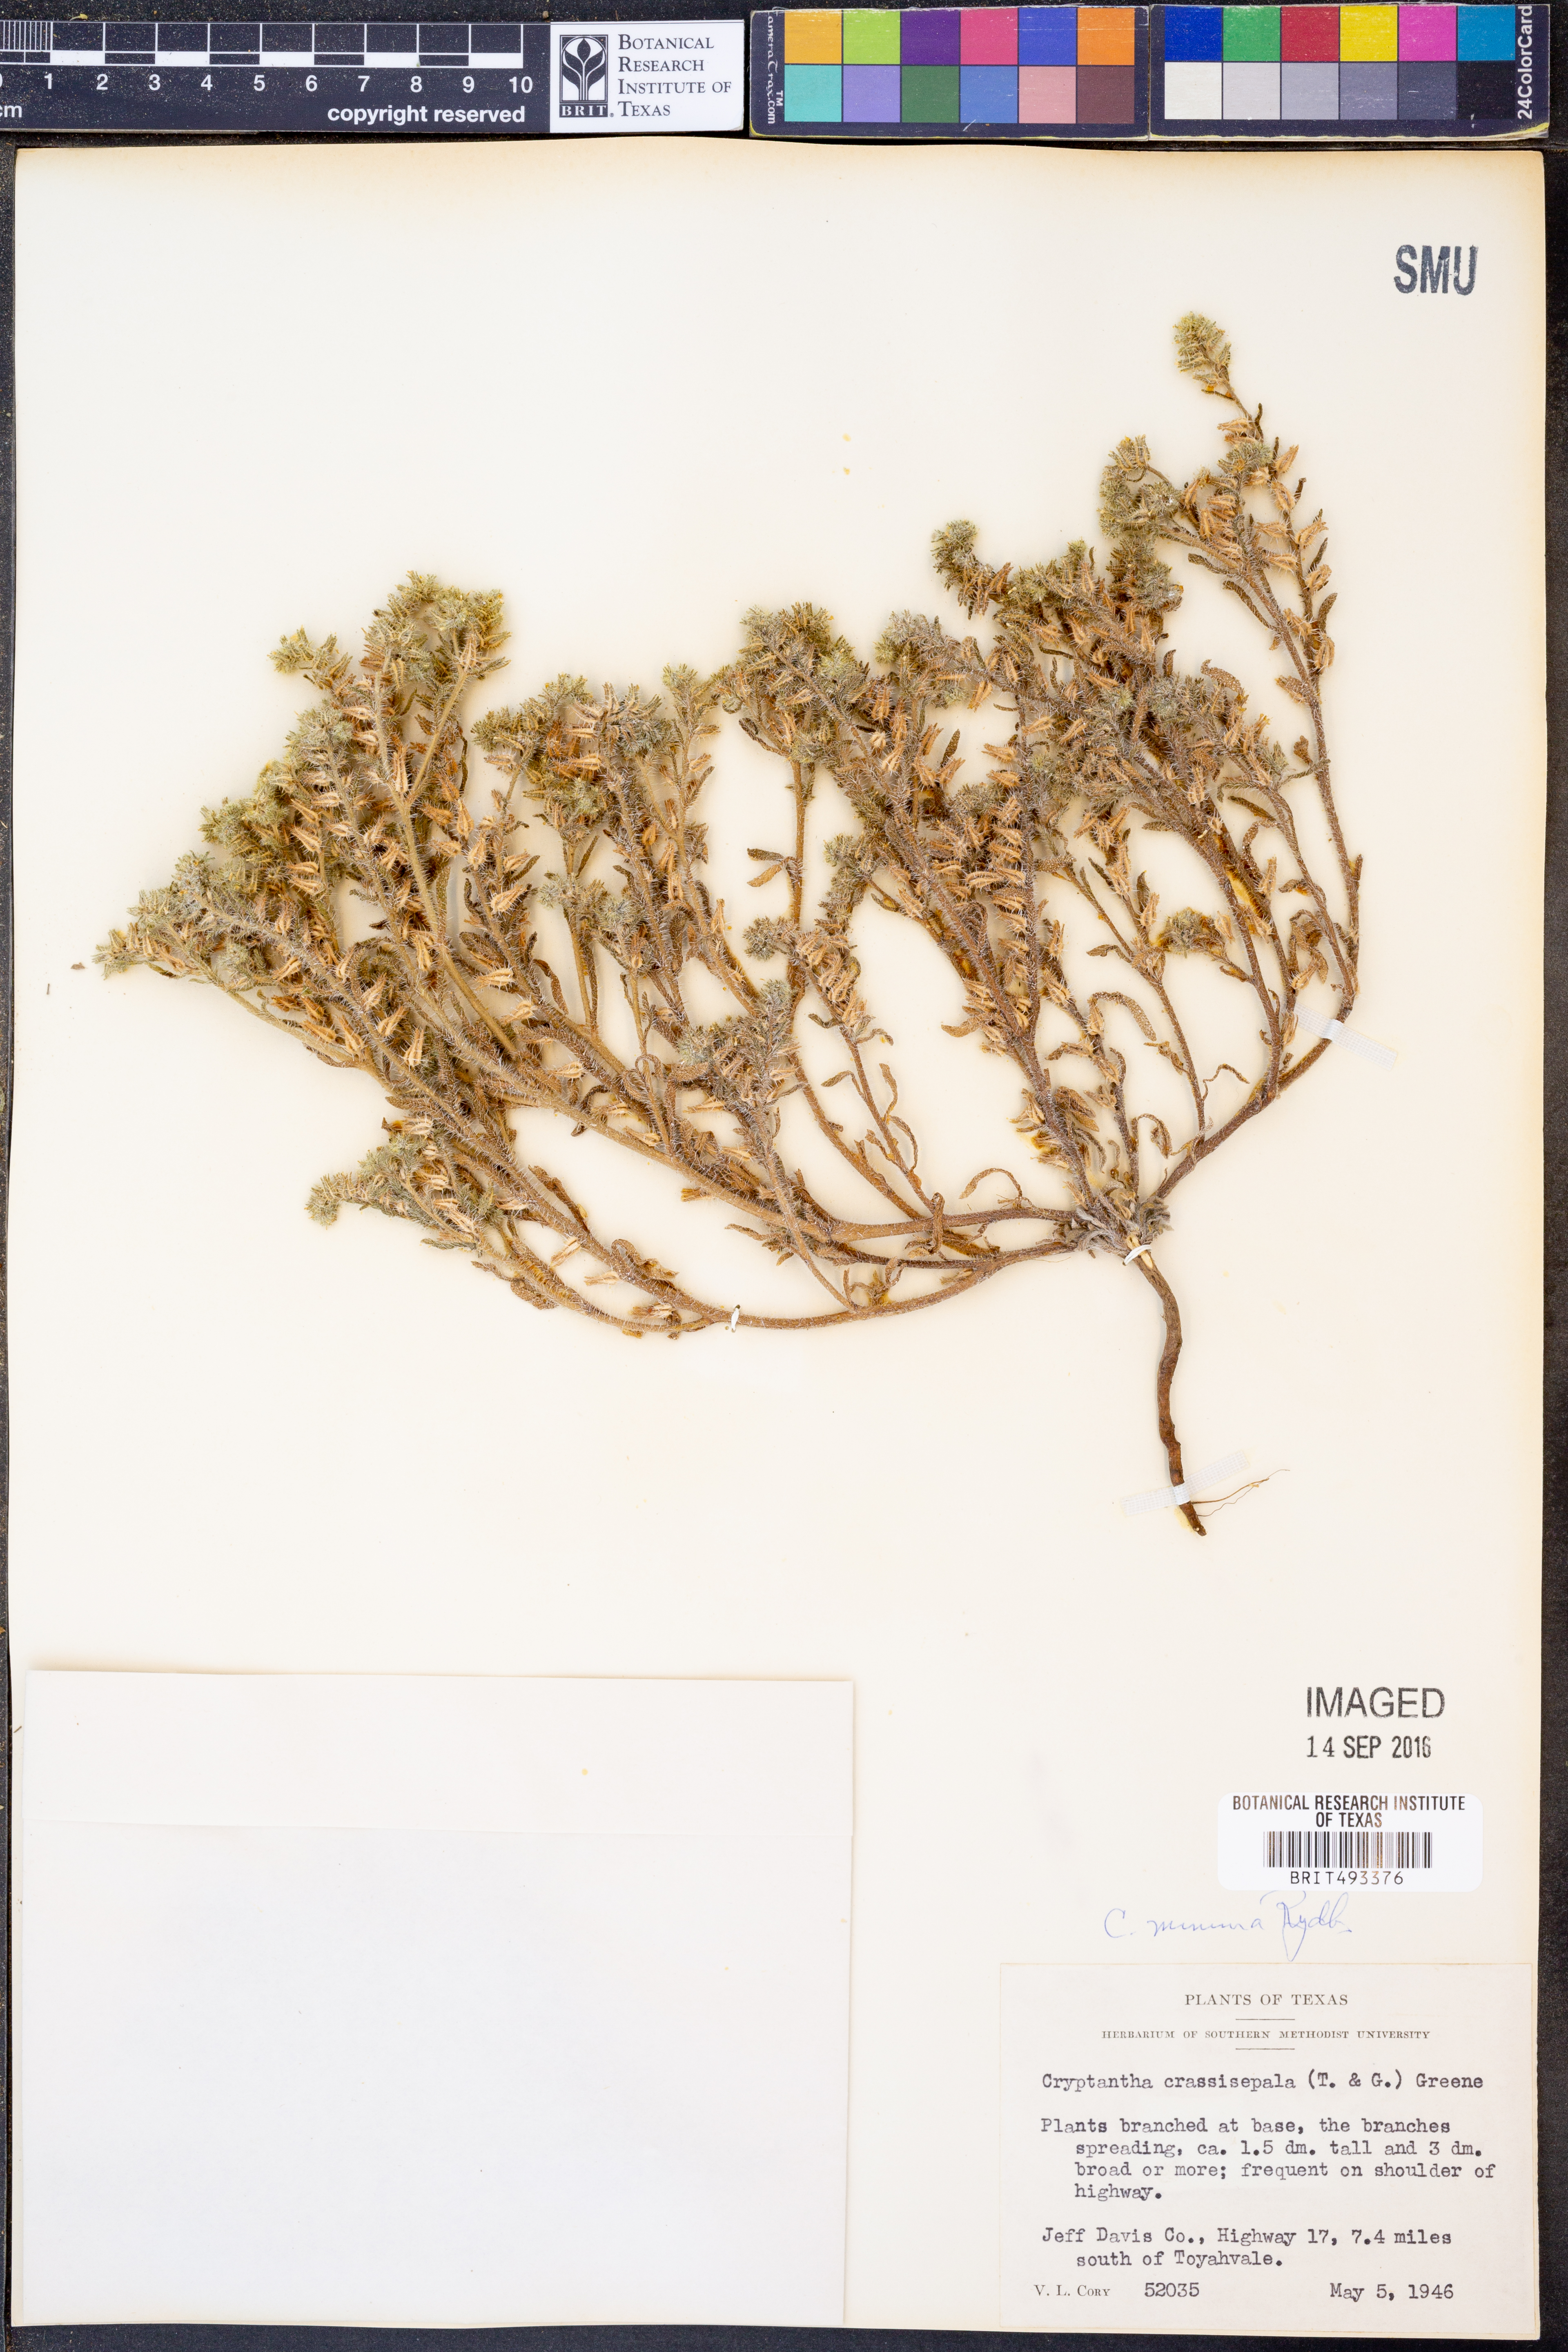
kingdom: Plantae
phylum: Tracheophyta
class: Magnoliopsida
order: Boraginales
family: Boraginaceae
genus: Cryptantha
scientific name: Cryptantha minima
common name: Little cat's-eye
